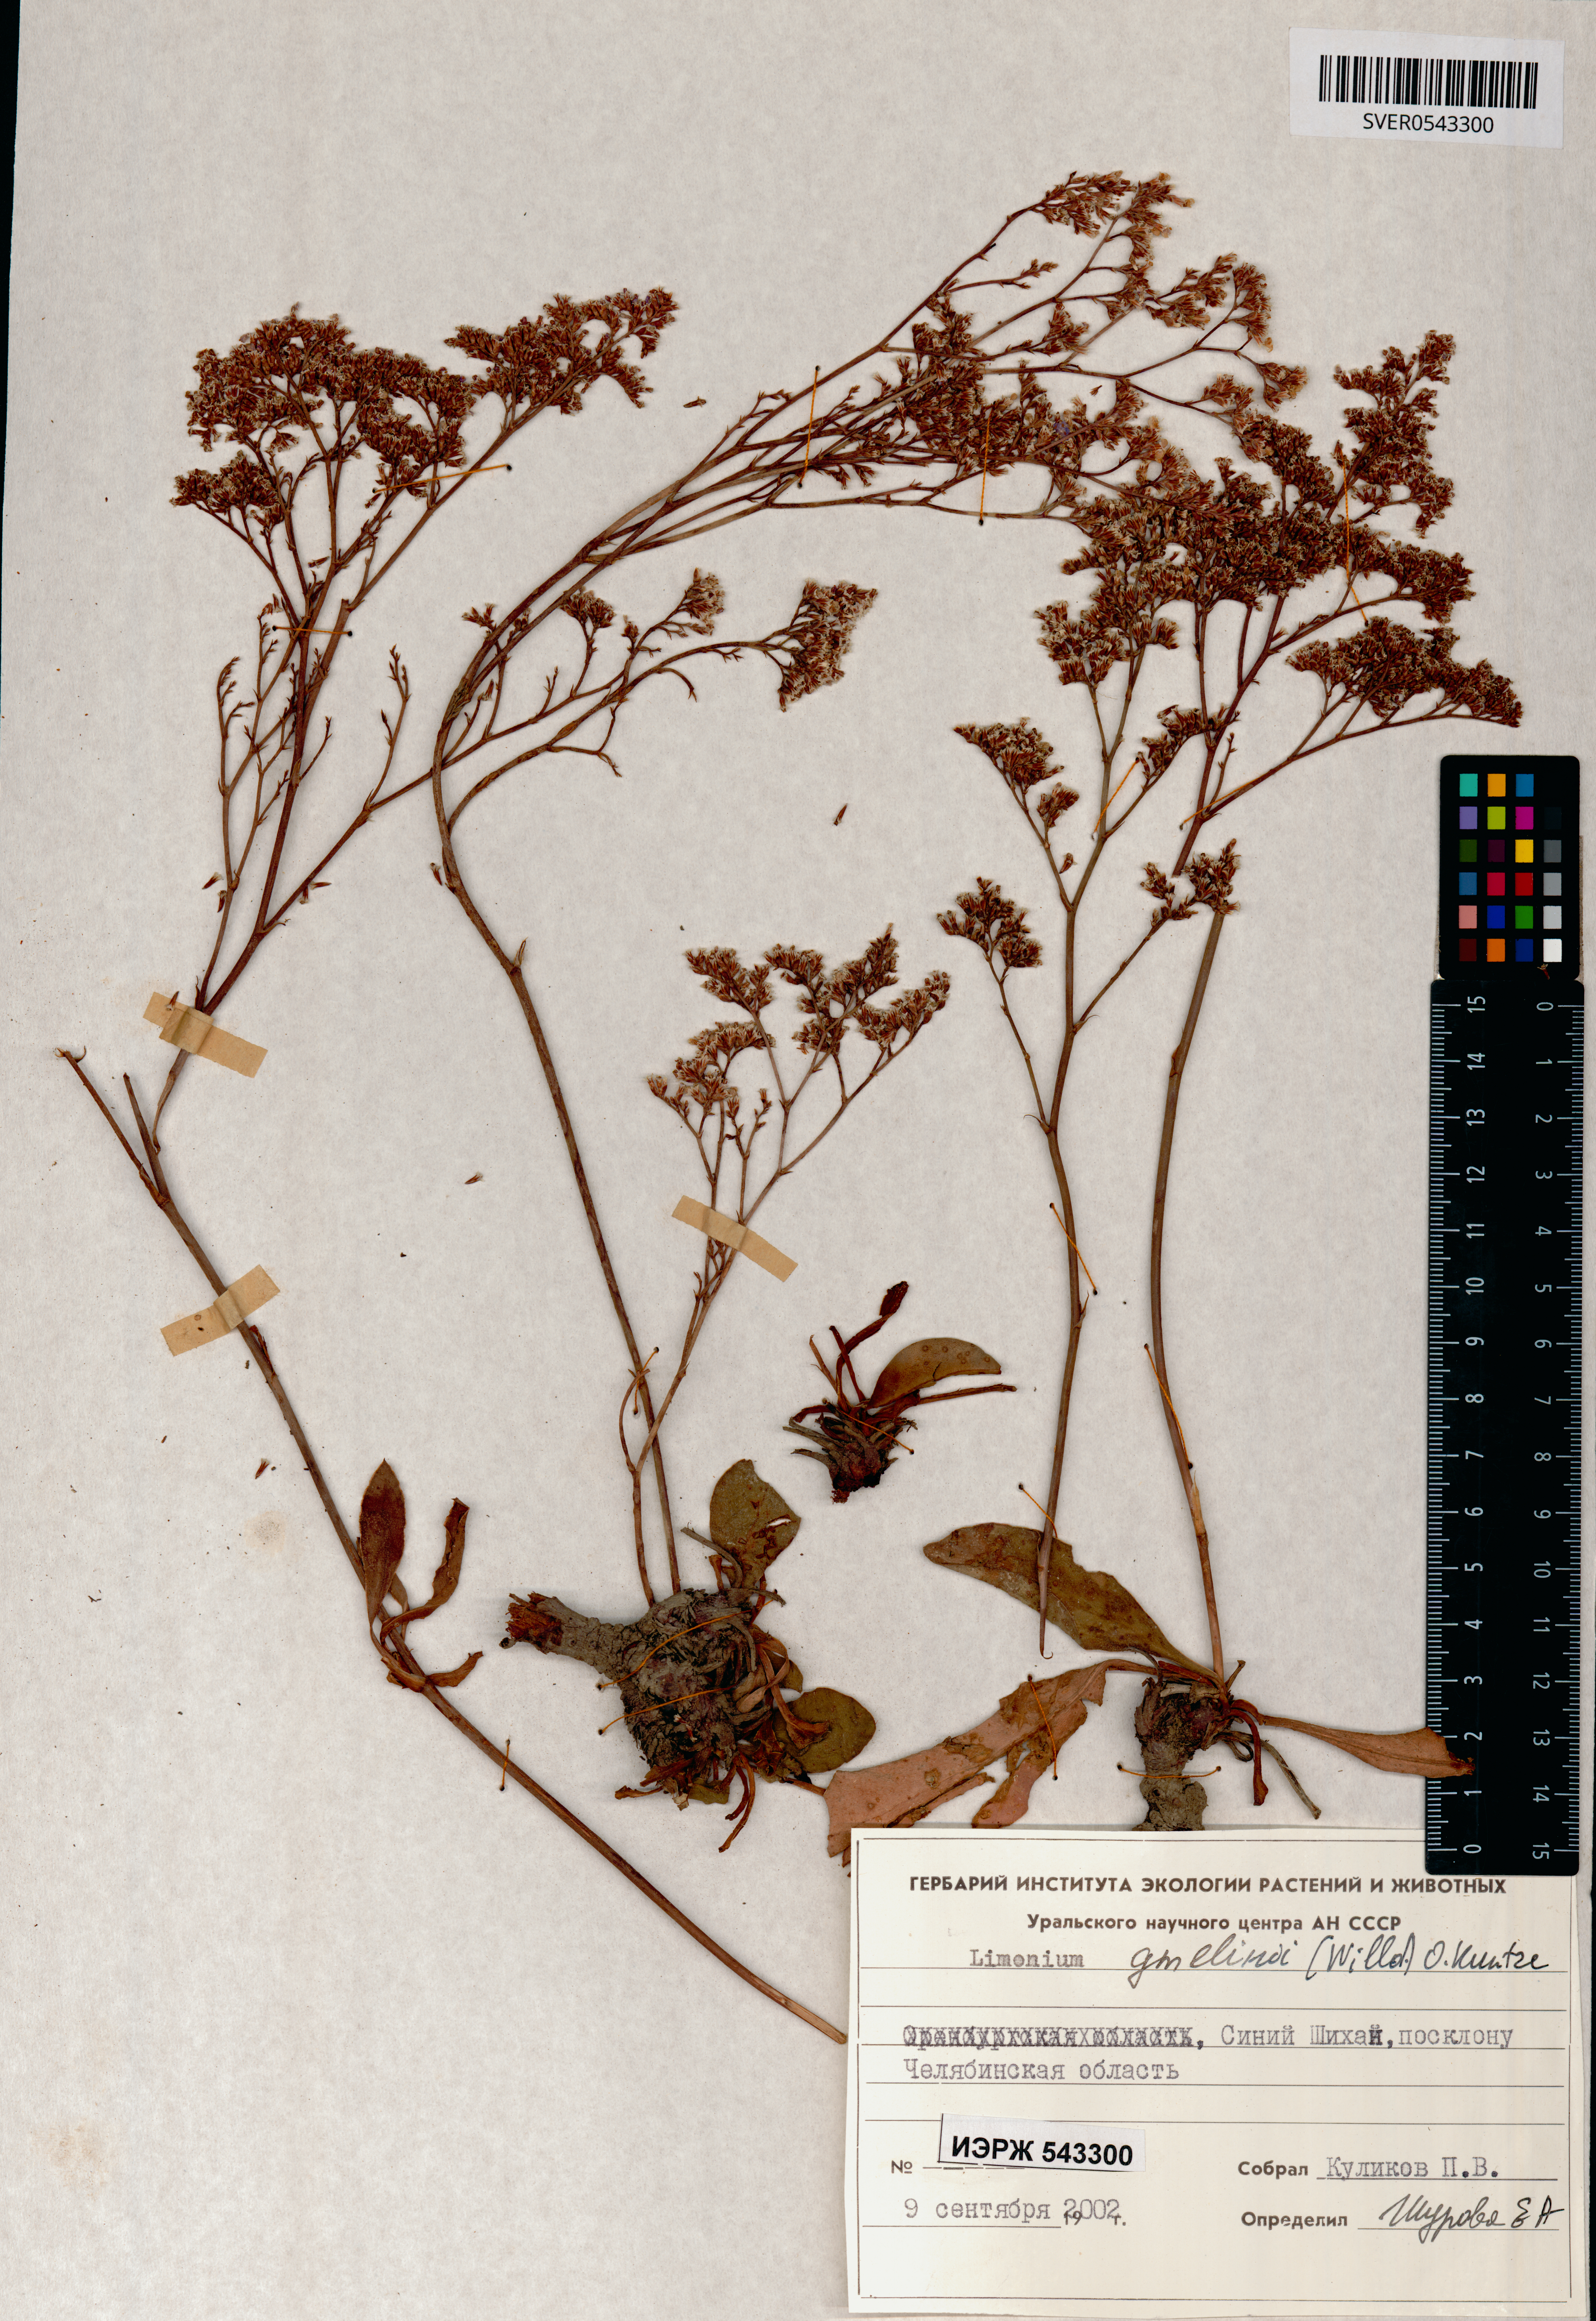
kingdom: Plantae
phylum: Tracheophyta
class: Magnoliopsida
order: Caryophyllales
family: Plumbaginaceae
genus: Limonium
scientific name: Limonium gmelini
